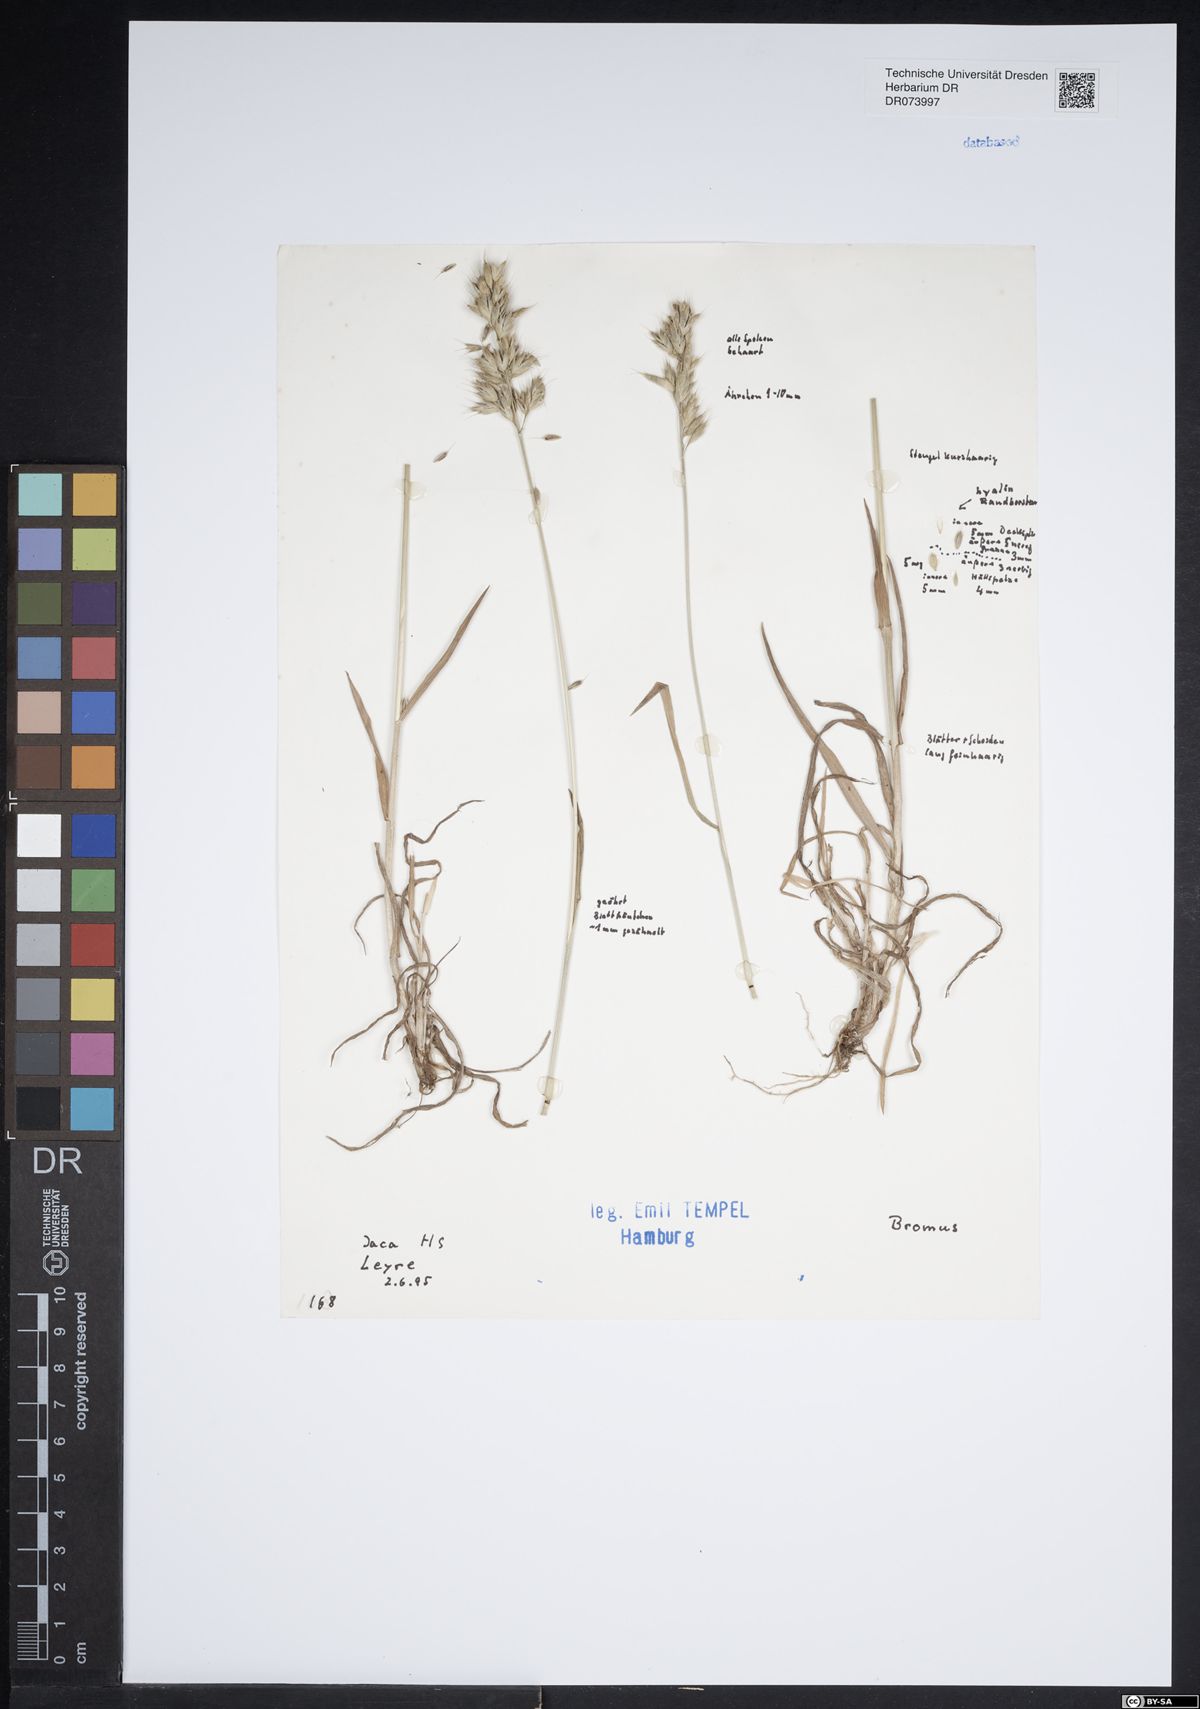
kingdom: Plantae
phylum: Tracheophyta
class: Liliopsida
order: Poales
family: Poaceae
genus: Bromus
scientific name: Bromus
